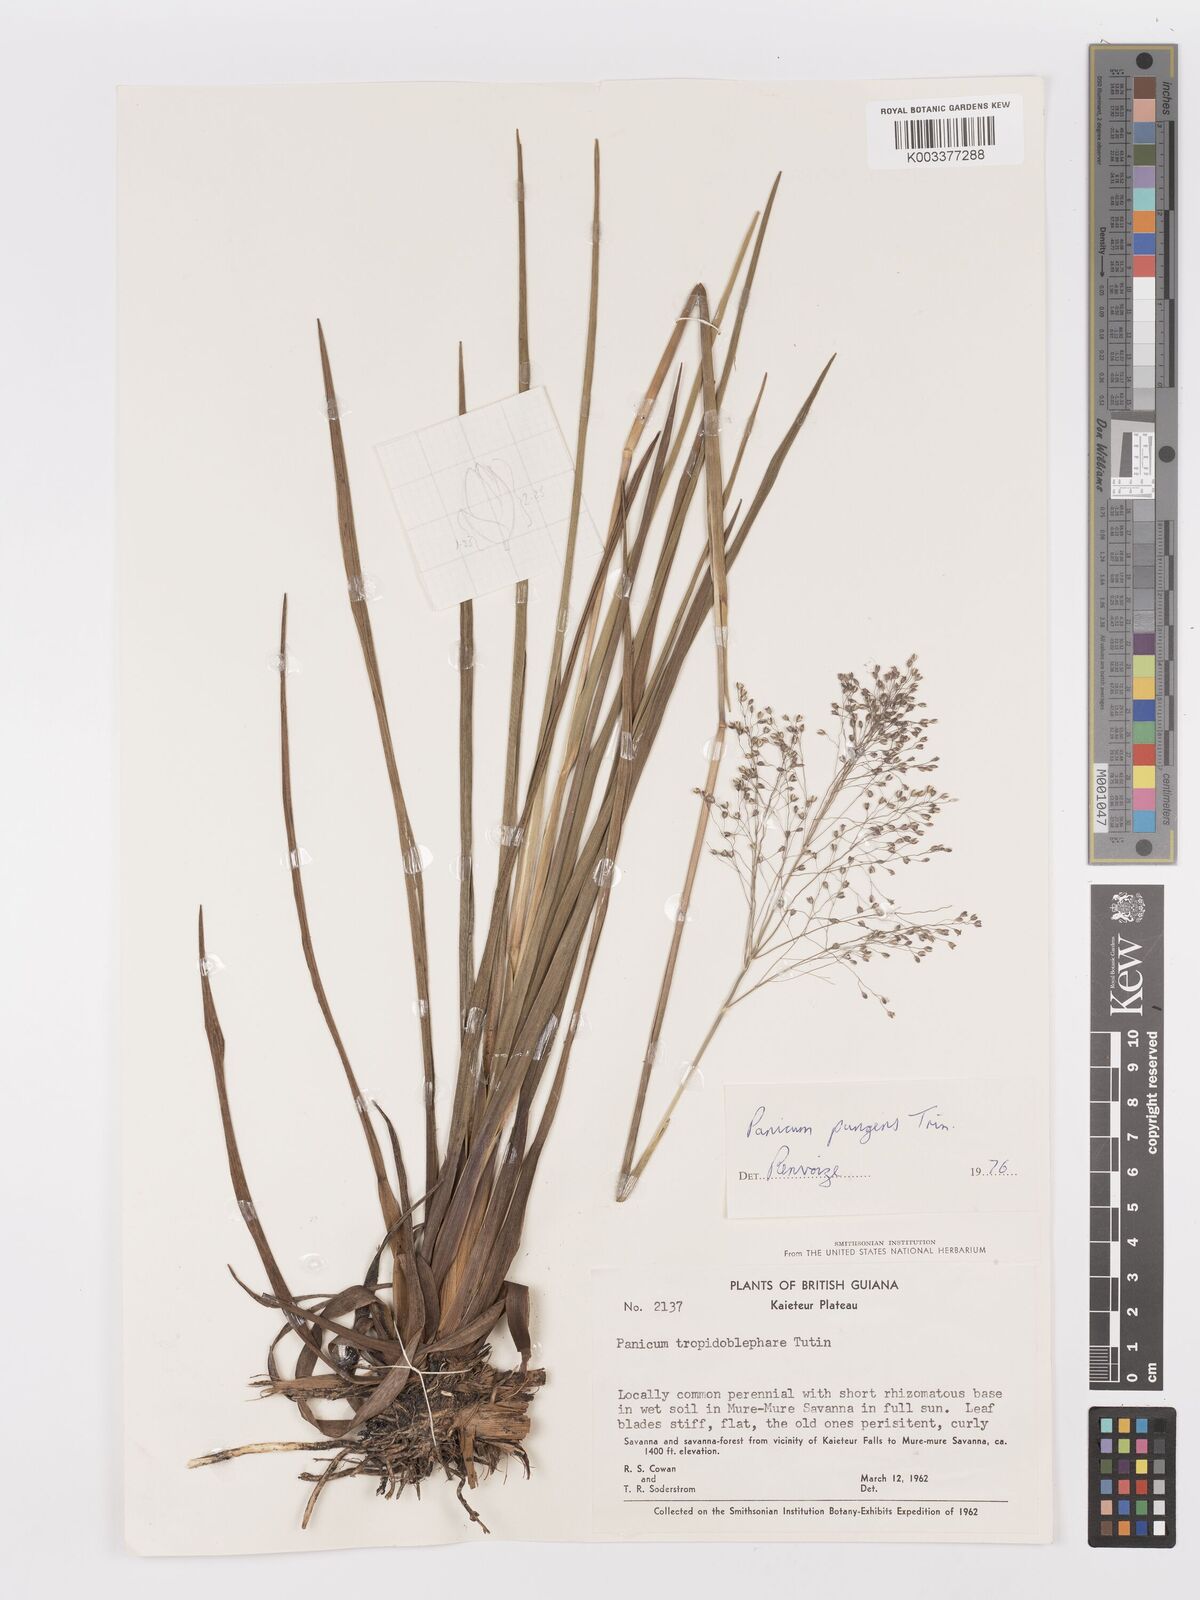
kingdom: Plantae
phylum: Tracheophyta
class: Liliopsida
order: Poales
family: Poaceae
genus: Apochloa
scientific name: Apochloa chnoodes
